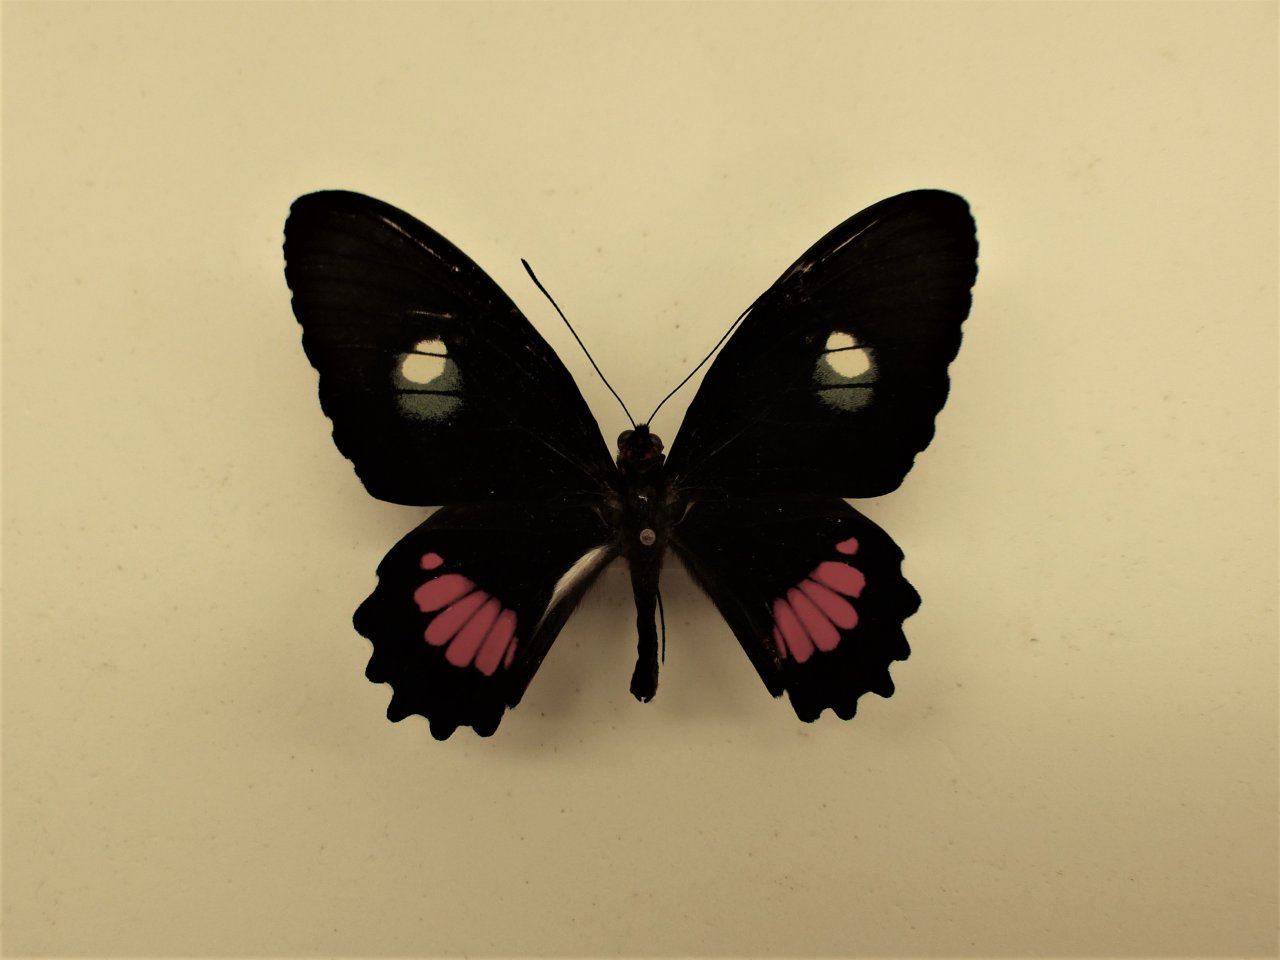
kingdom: Animalia
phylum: Arthropoda
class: Insecta
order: Lepidoptera
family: Papilionidae
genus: Parides
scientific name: Parides anchises
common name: Anchises Cattleheart
